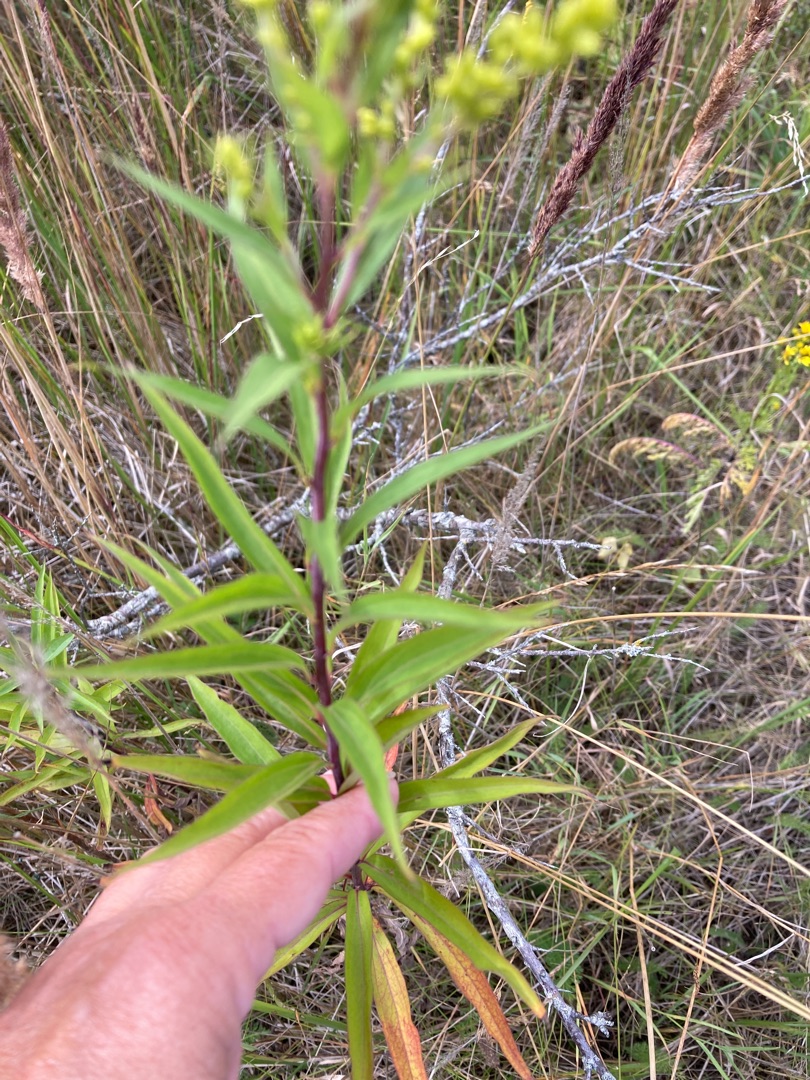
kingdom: Plantae
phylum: Tracheophyta
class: Magnoliopsida
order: Asterales
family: Asteraceae
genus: Solidago
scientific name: Solidago gigantea
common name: Sildig gyldenris
